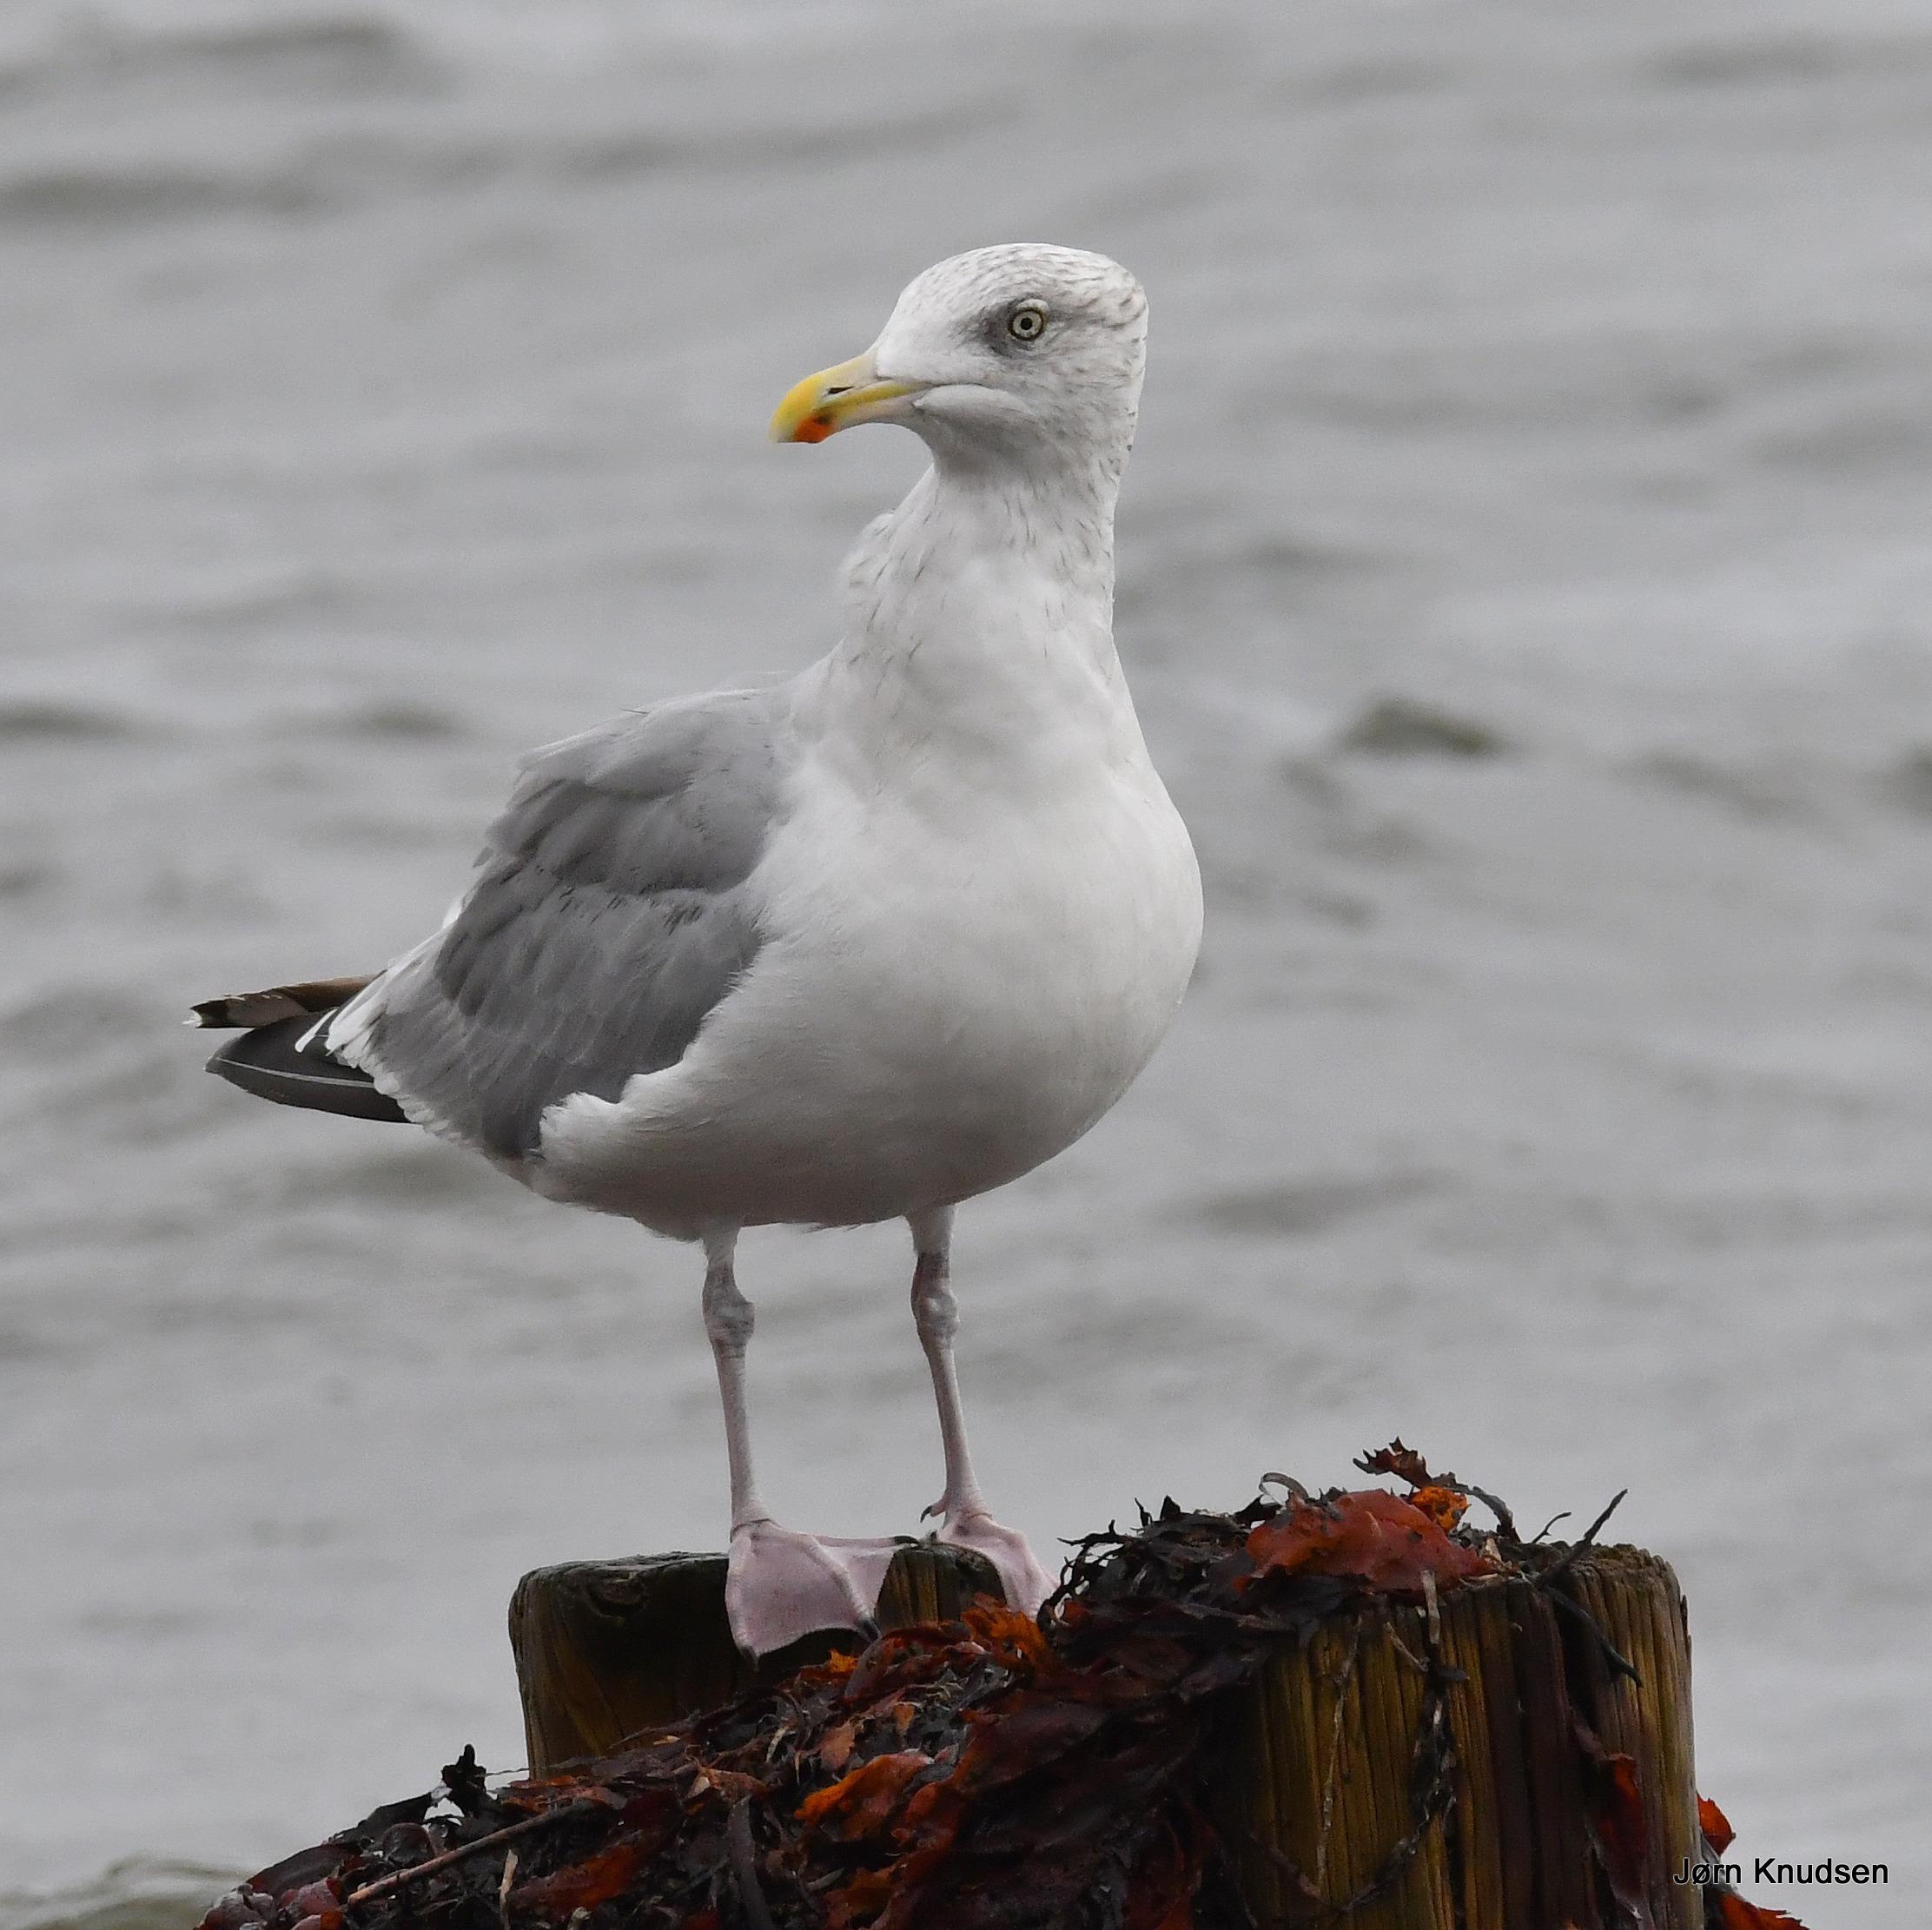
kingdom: Animalia
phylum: Chordata
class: Aves
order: Charadriiformes
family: Laridae
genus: Larus
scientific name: Larus argentatus
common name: Sølvmåge
